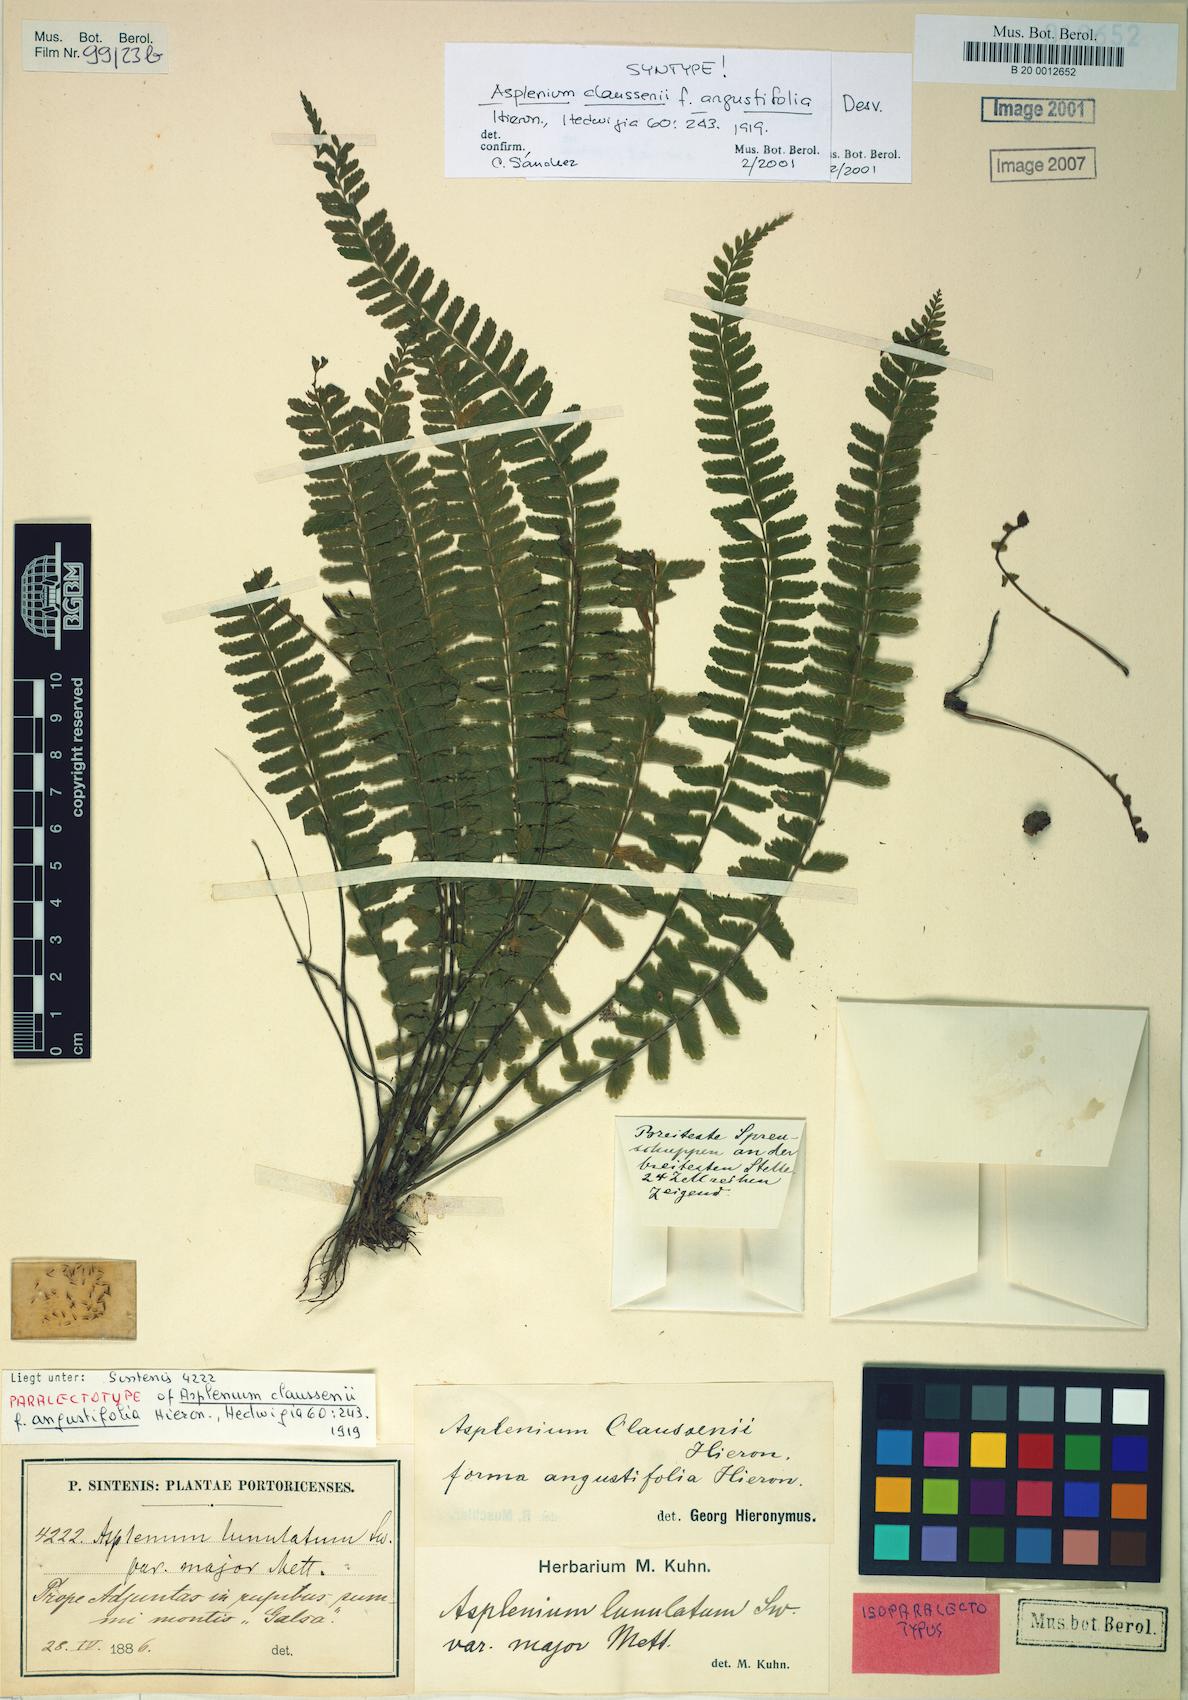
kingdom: Plantae
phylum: Tracheophyta
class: Polypodiopsida
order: Polypodiales
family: Aspleniaceae
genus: Asplenium
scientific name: Asplenium claussenii
